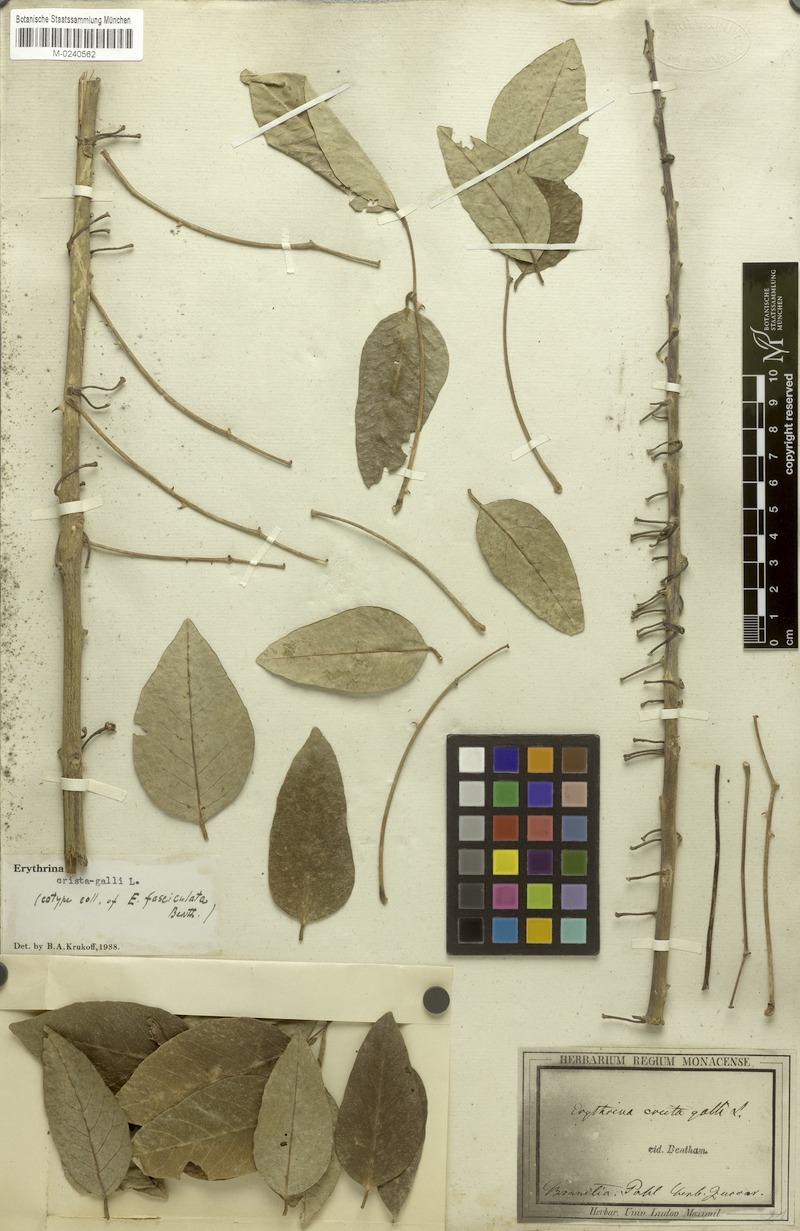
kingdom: Plantae
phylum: Tracheophyta
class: Magnoliopsida
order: Fabales
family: Fabaceae
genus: Erythrina
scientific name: Erythrina crista-galli
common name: Cockspur coral tree
